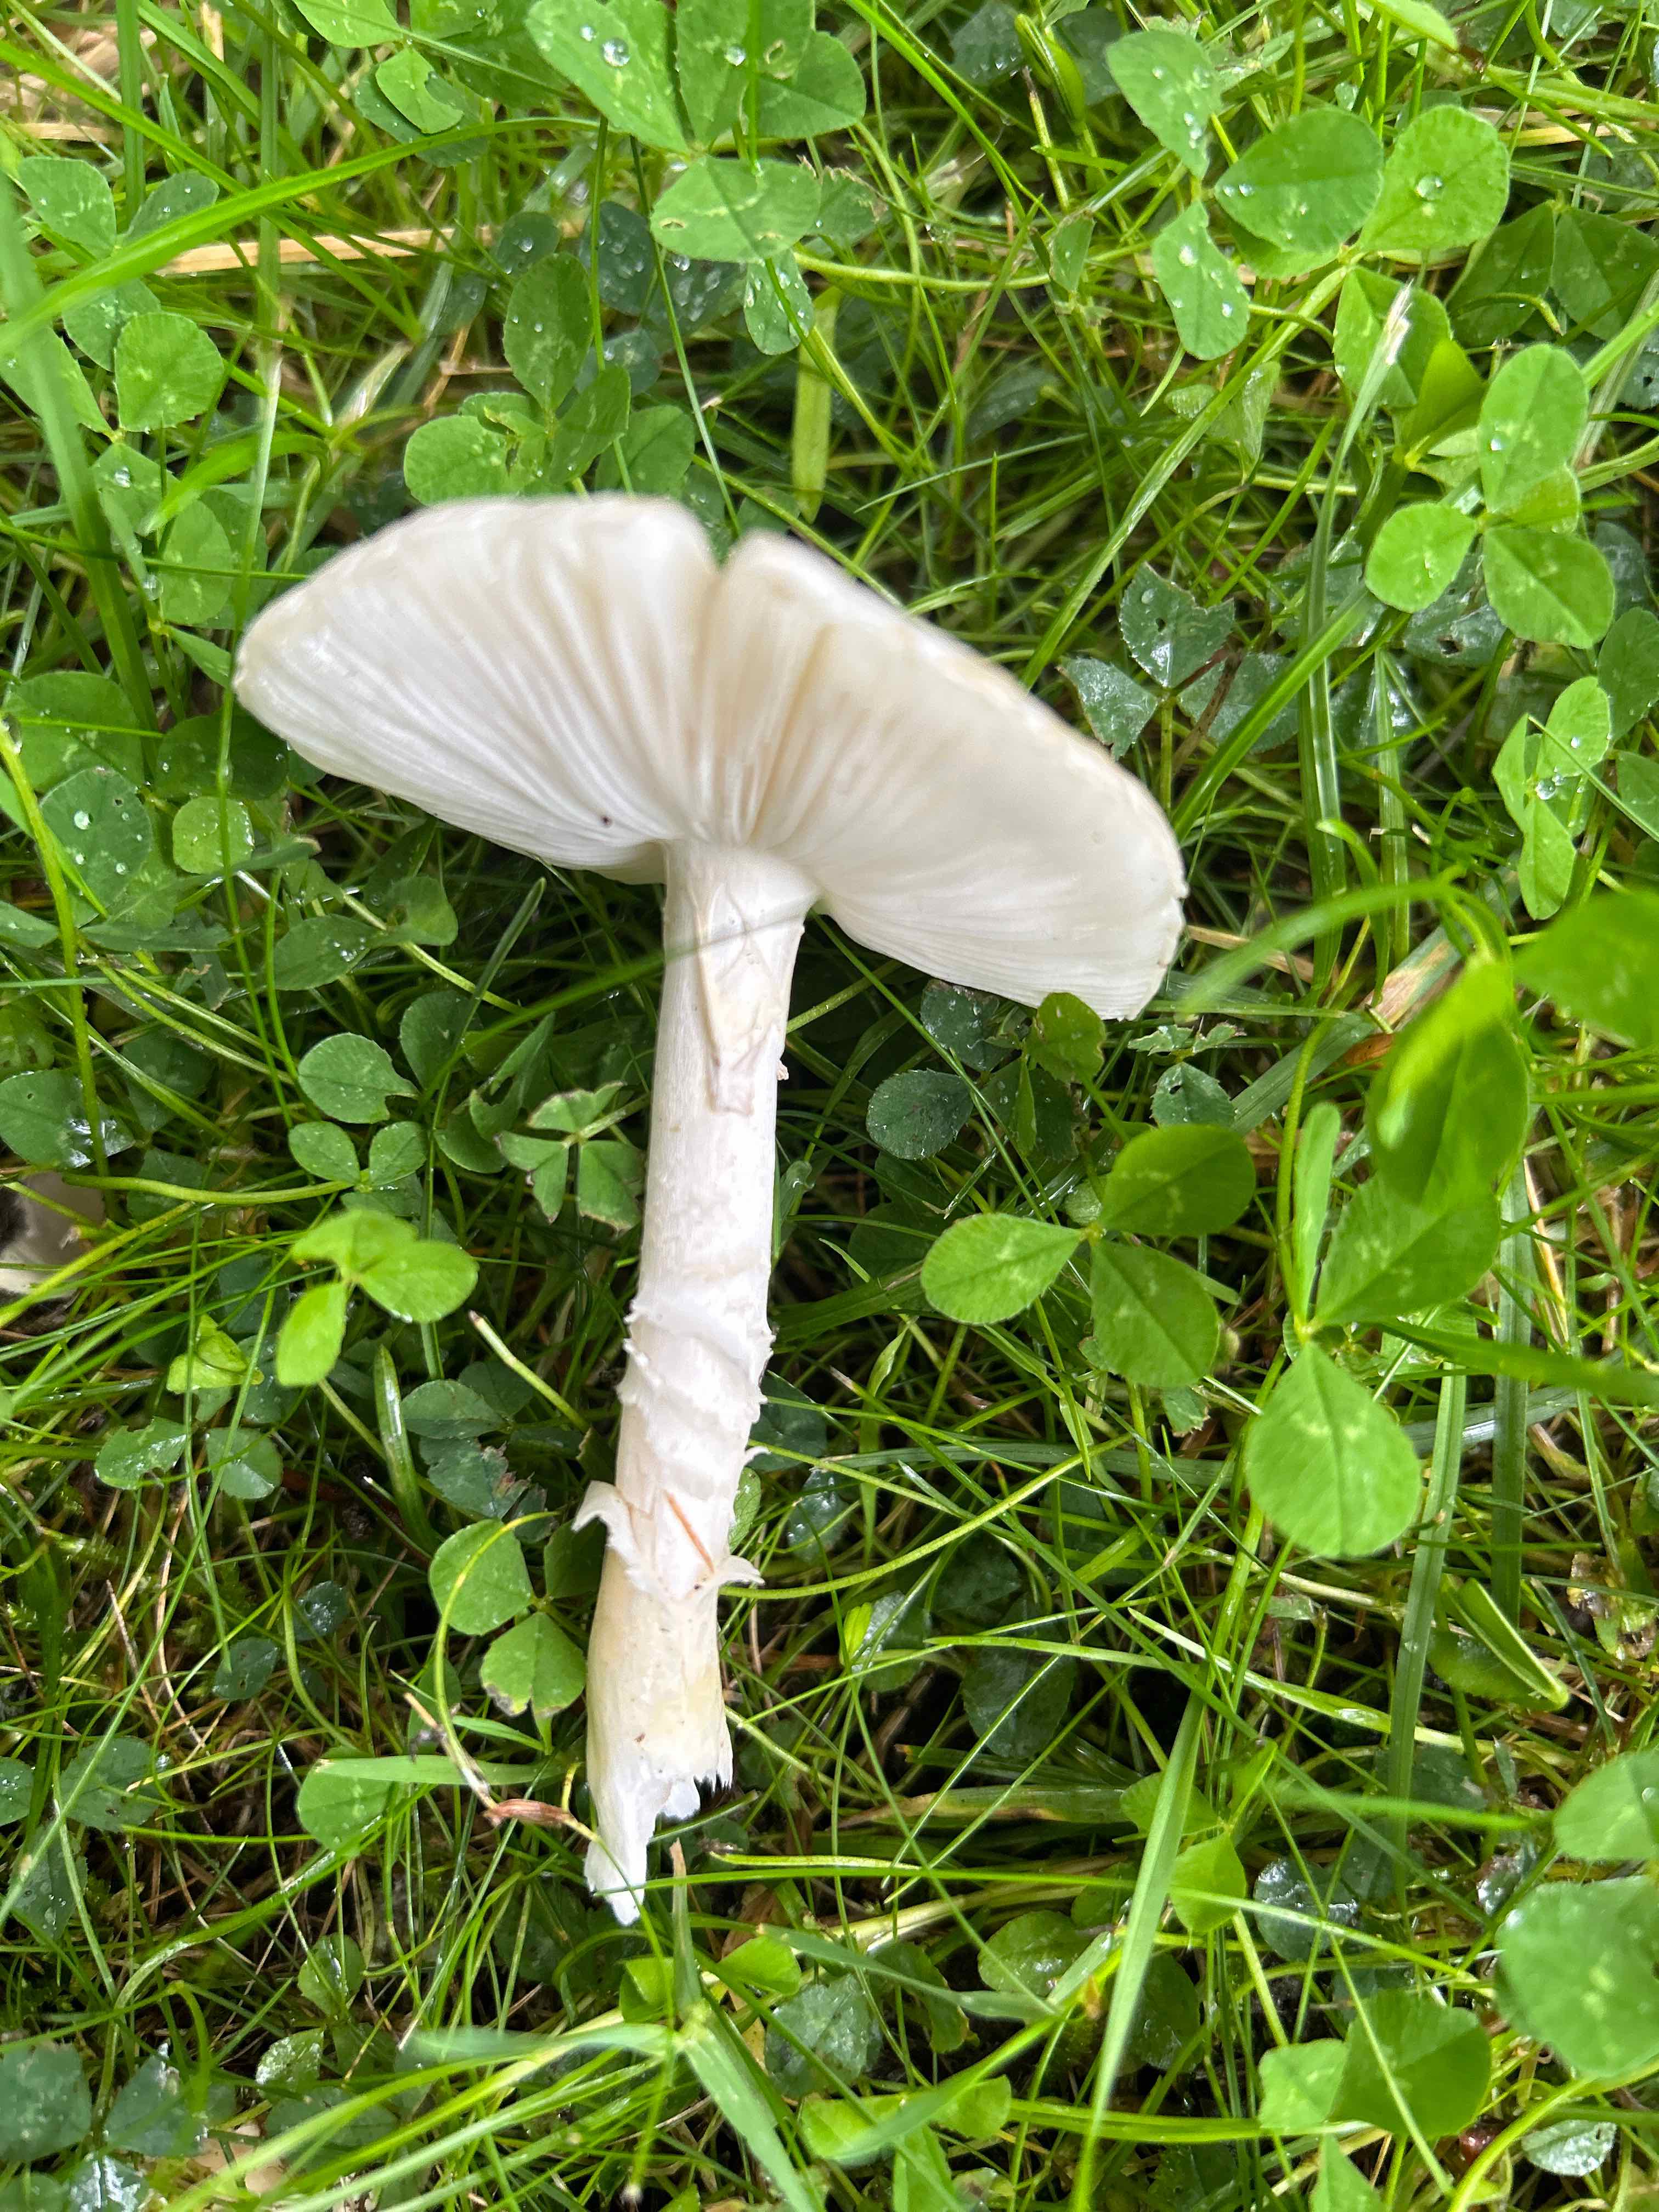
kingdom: Fungi
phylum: Basidiomycota
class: Agaricomycetes
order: Agaricales
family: Amanitaceae
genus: Amanita
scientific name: Amanita phalloides
